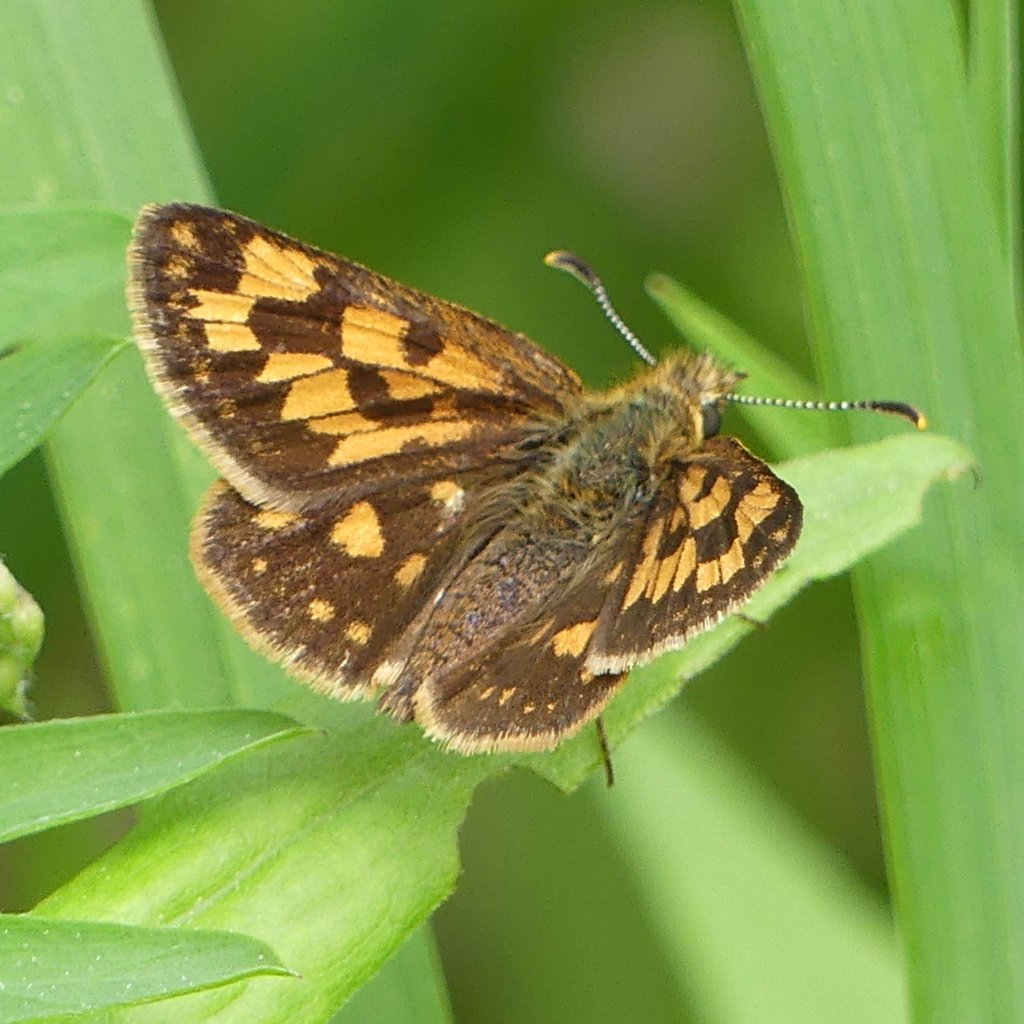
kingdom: Animalia
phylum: Arthropoda
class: Insecta
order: Lepidoptera
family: Hesperiidae
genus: Carterocephalus
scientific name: Carterocephalus palaemon
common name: Chequered Skipper
